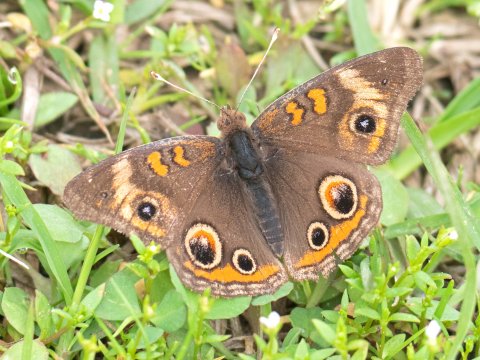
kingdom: Animalia
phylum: Arthropoda
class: Insecta
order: Lepidoptera
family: Nymphalidae
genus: Junonia
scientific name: Junonia coenia
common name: Common Buckeye
